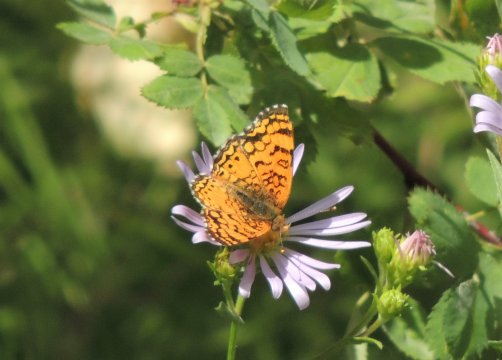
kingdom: Animalia
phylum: Arthropoda
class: Insecta
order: Lepidoptera
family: Nymphalidae
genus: Eresia
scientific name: Eresia aveyrona
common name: Mylitta Crescent
